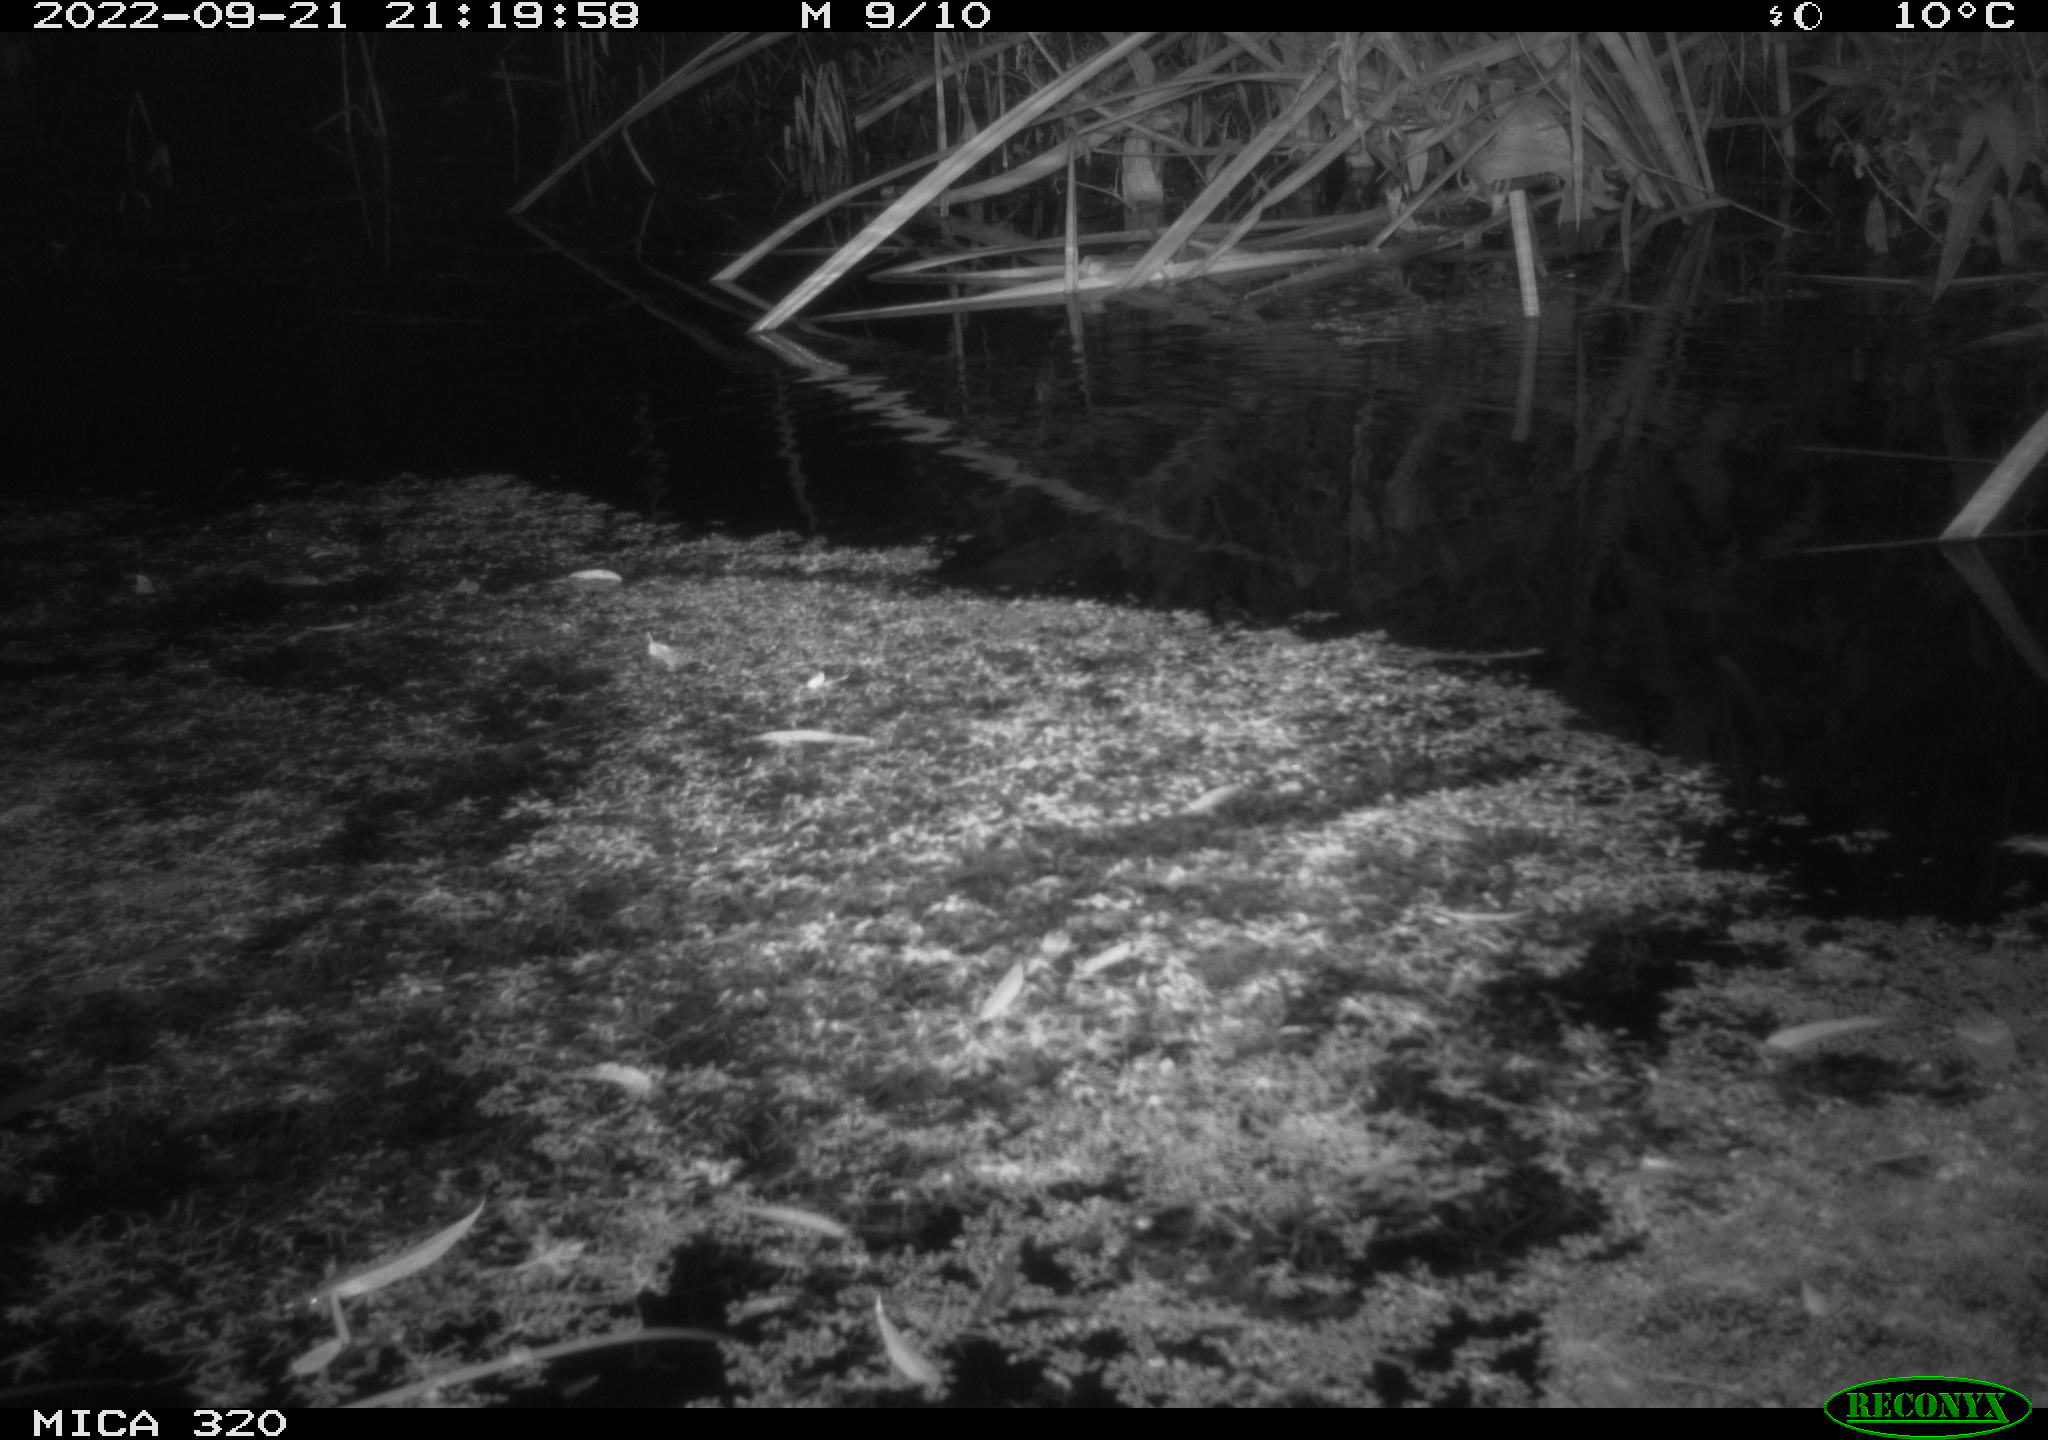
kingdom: Animalia
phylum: Chordata
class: Mammalia
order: Rodentia
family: Muridae
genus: Rattus
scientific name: Rattus norvegicus
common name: Brown rat
